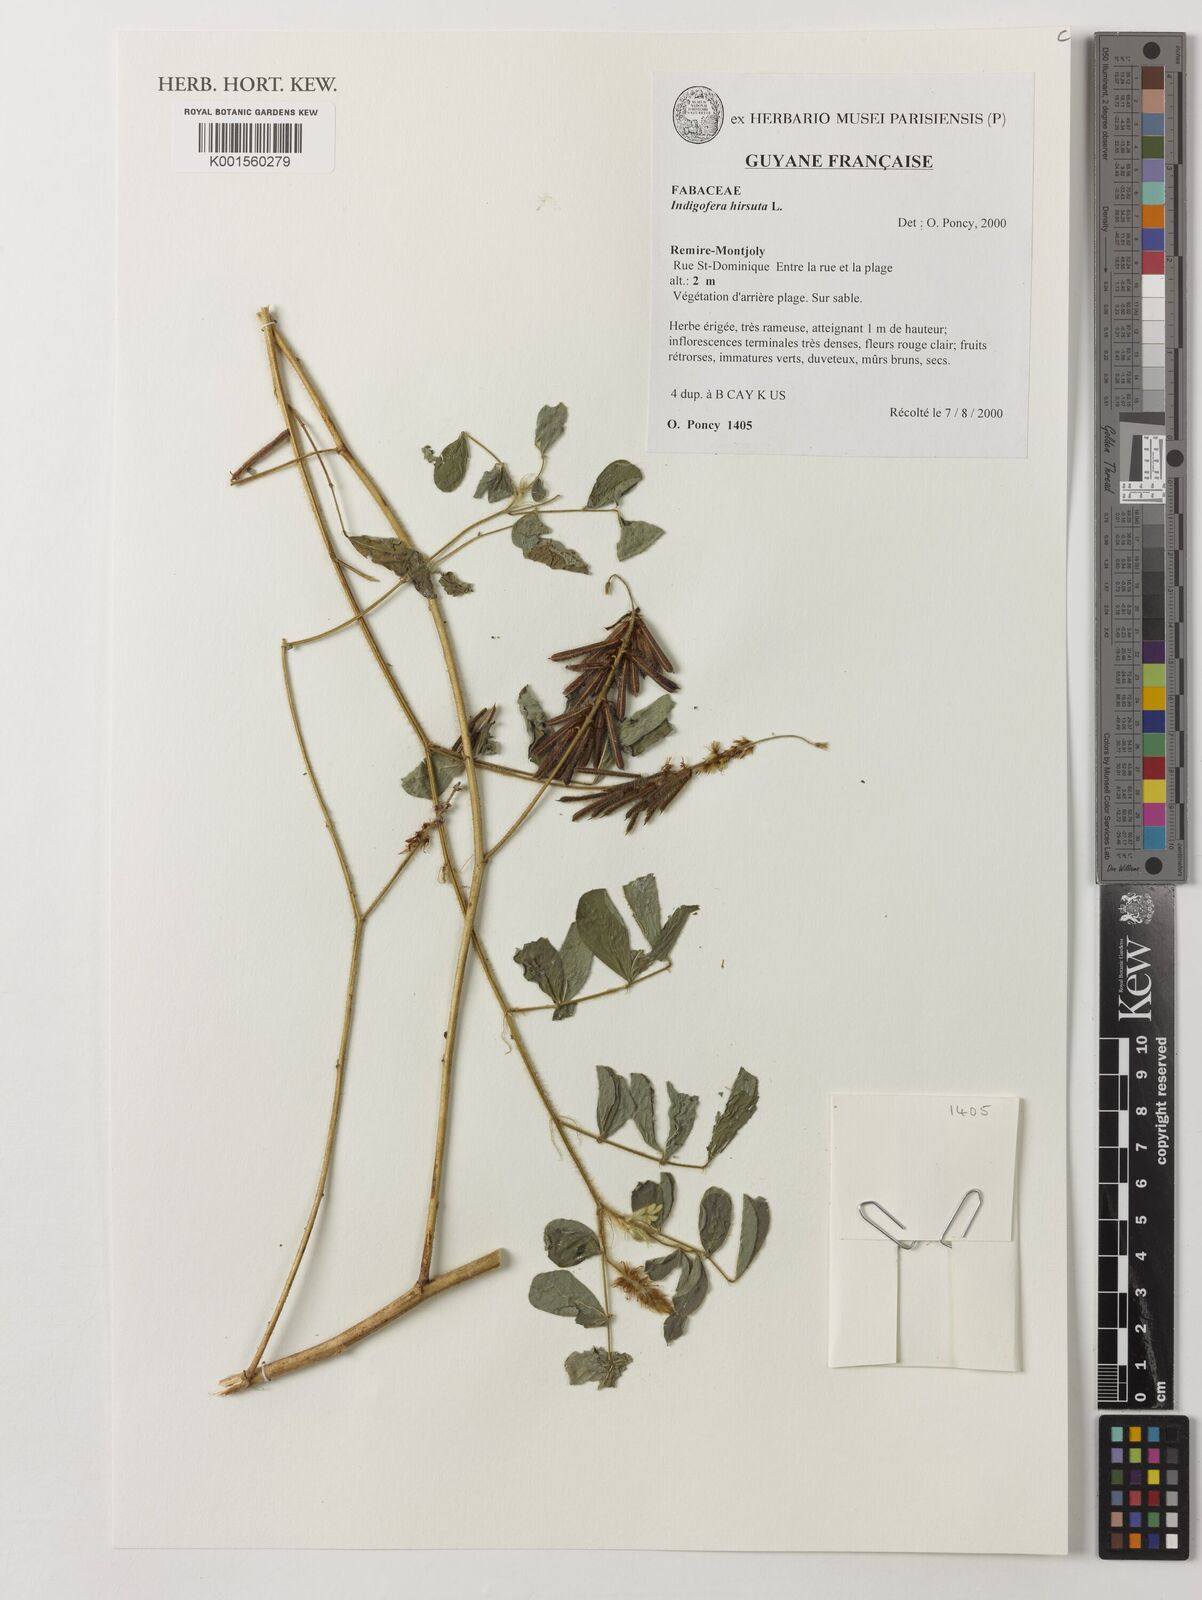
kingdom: Plantae
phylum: Tracheophyta
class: Magnoliopsida
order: Fabales
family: Fabaceae
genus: Indigofera
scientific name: Indigofera hirsuta
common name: Hairy indigo
